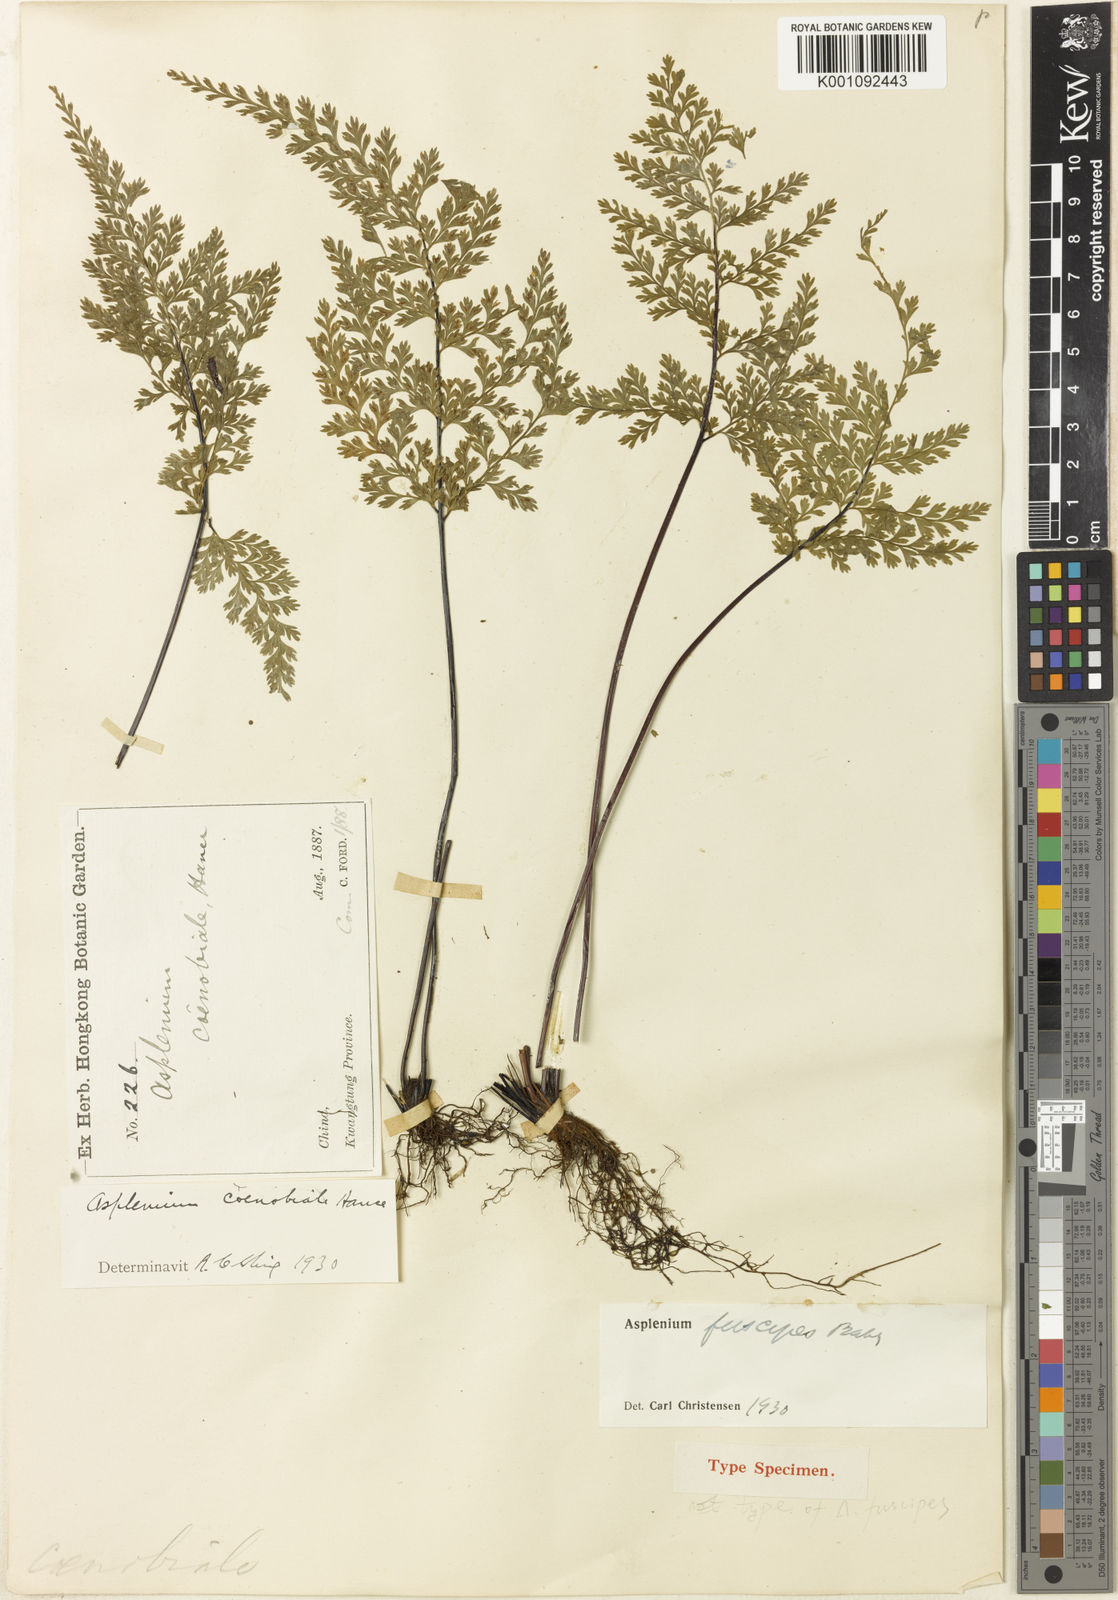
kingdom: Plantae
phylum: Tracheophyta
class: Polypodiopsida
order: Polypodiales
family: Aspleniaceae
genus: Asplenium
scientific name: Asplenium coenobiale
